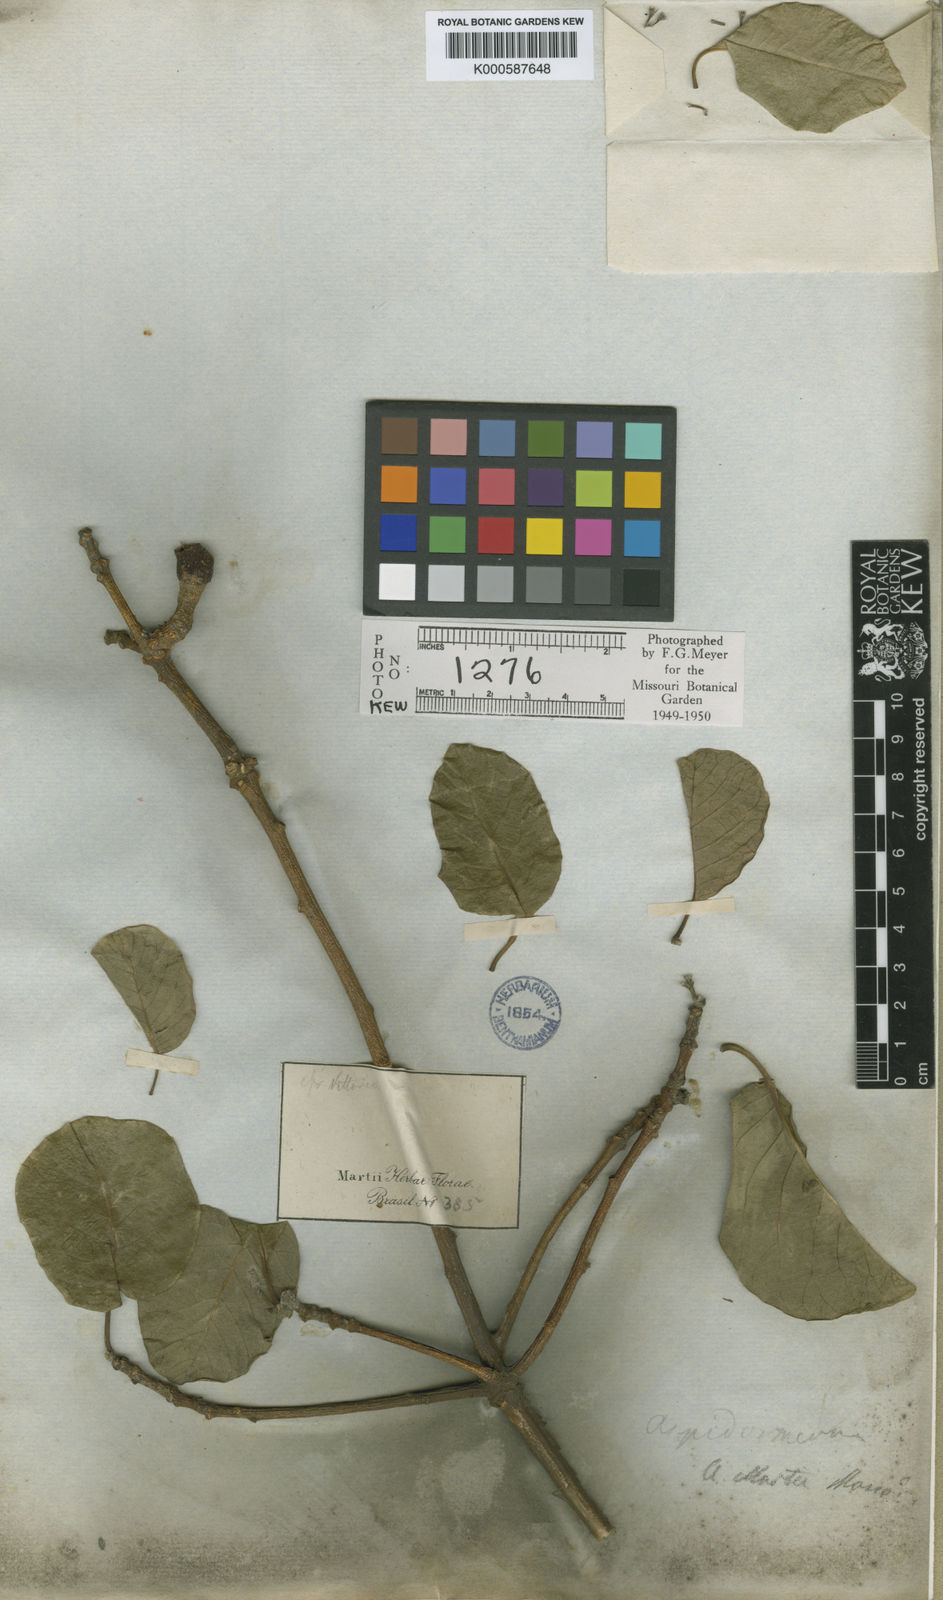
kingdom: Plantae
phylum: Tracheophyta
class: Magnoliopsida
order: Gentianales
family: Apocynaceae
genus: Aspidosperma
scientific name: Aspidosperma pyrifolium
